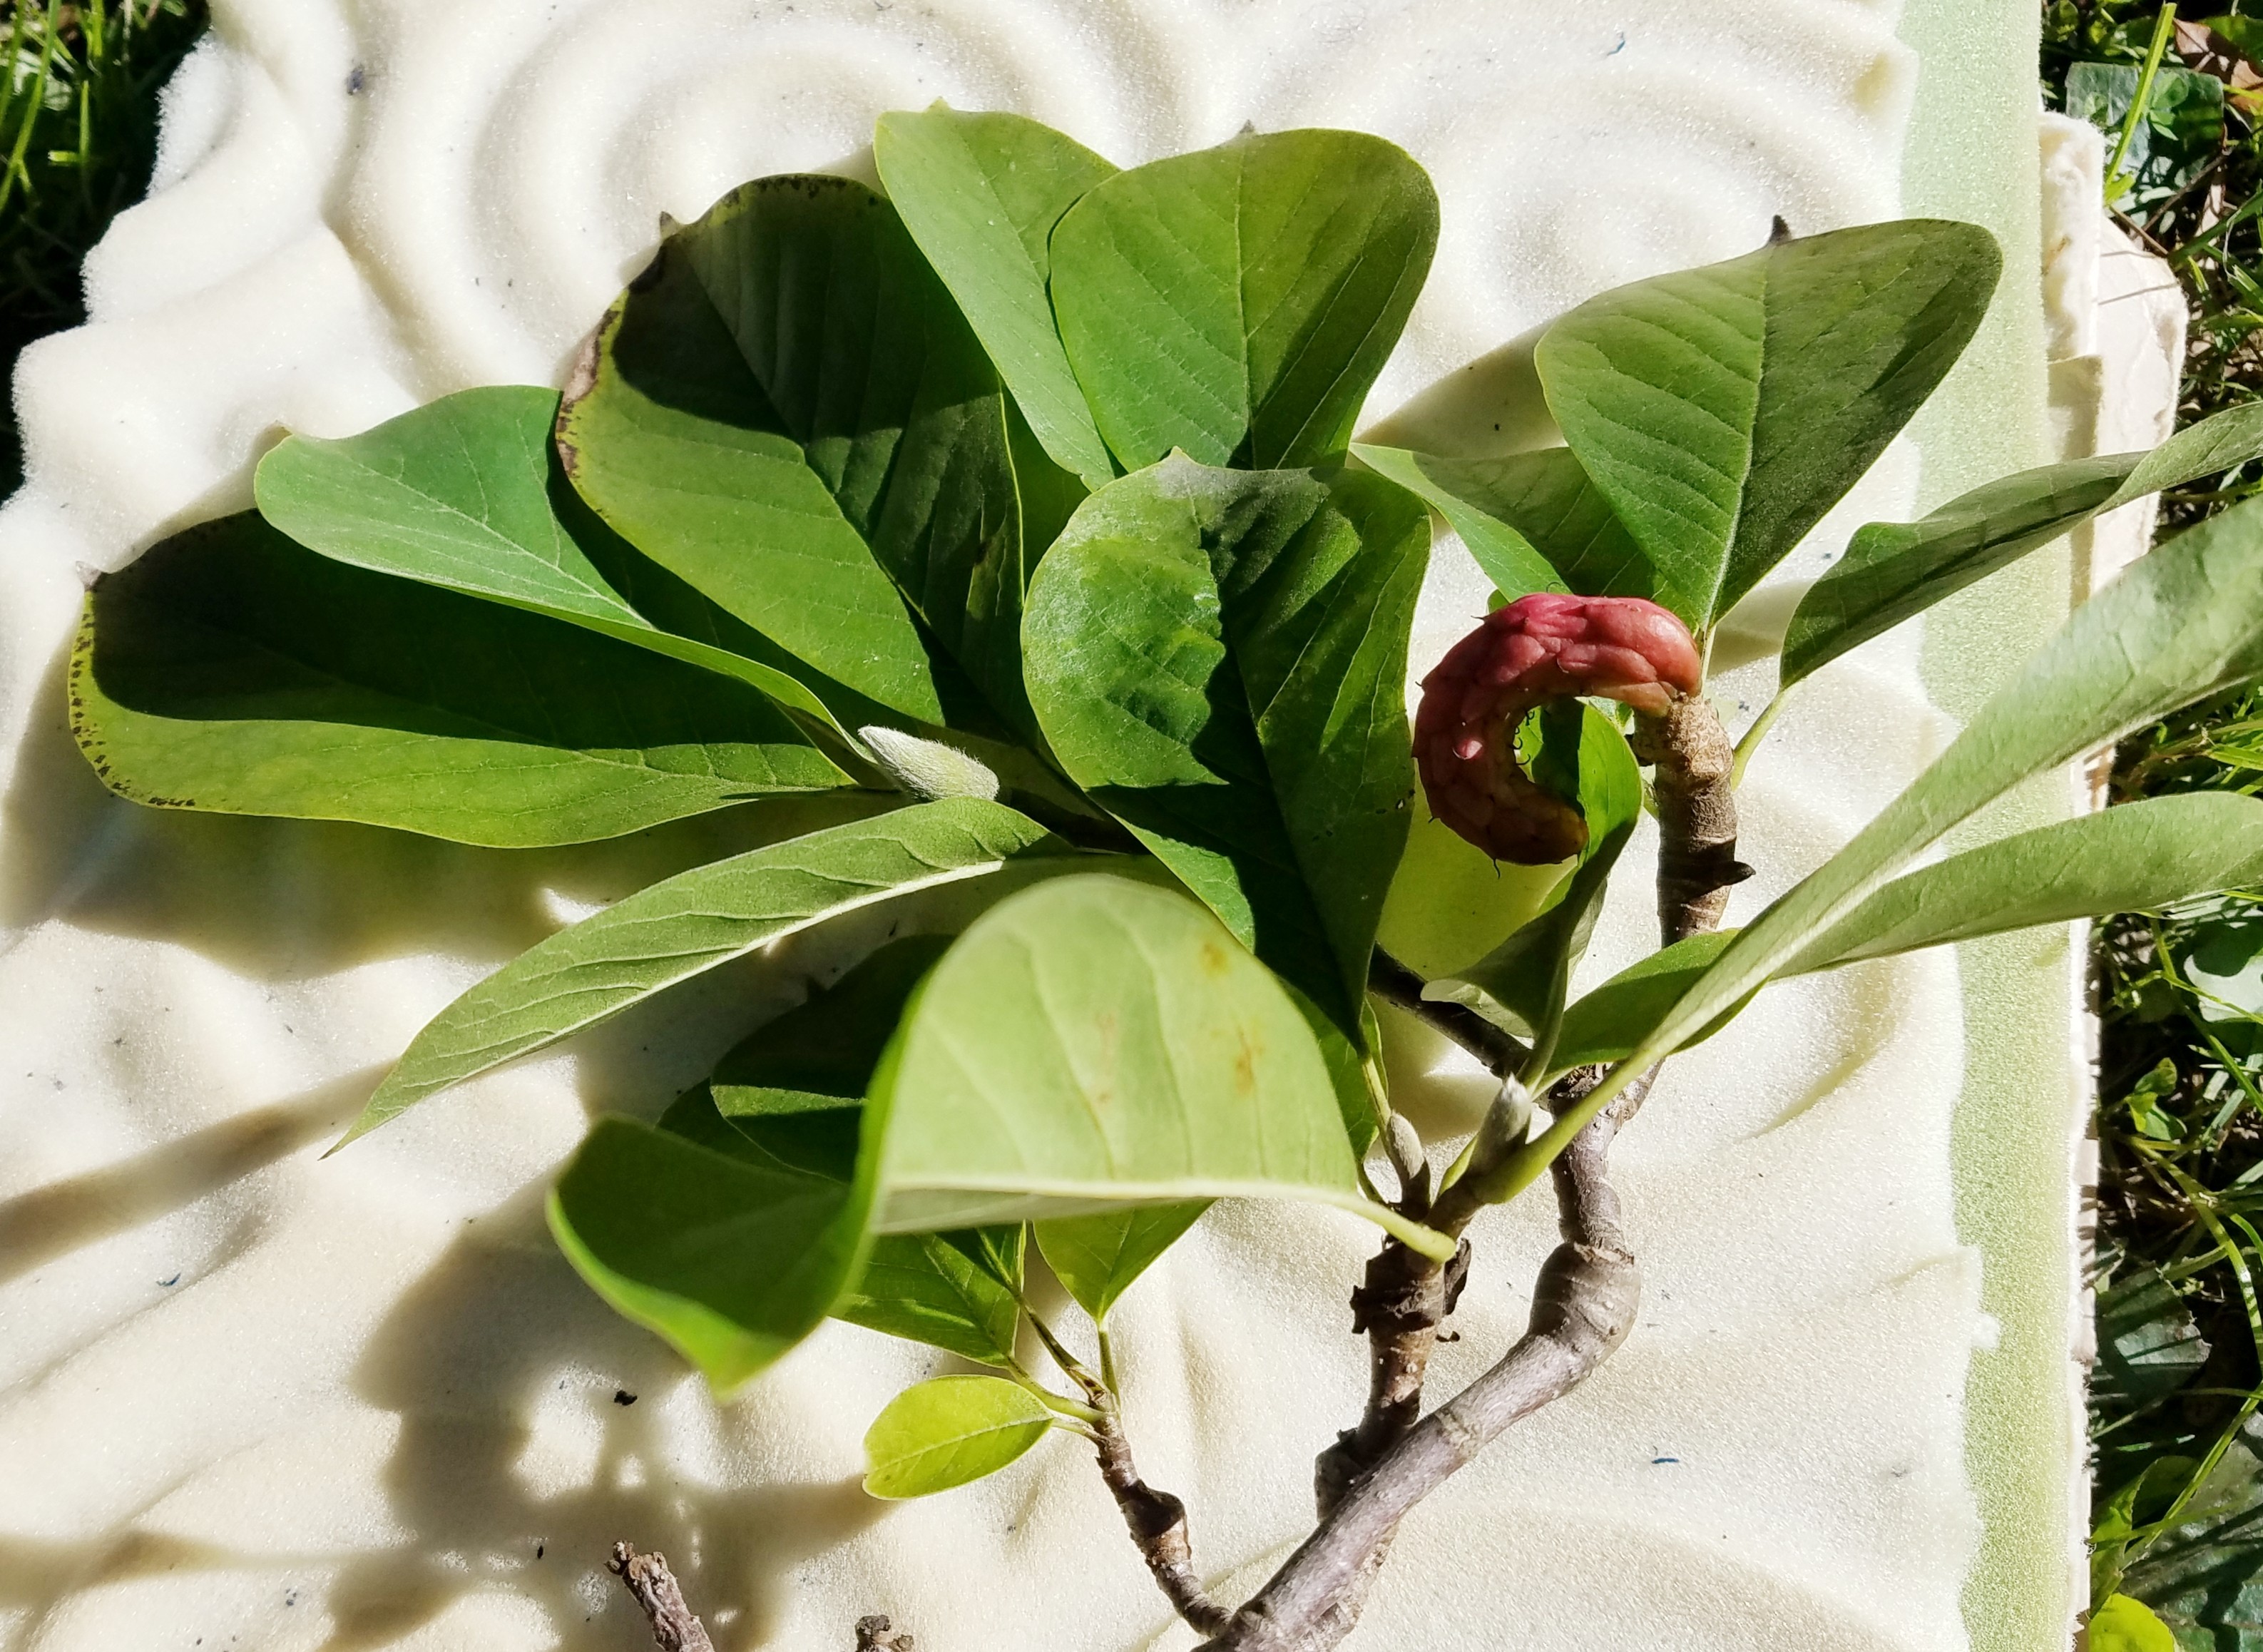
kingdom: Plantae
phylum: Tracheophyta
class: Magnoliopsida
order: Magnoliales
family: Magnoliaceae
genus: Magnolia
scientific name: Magnolia soulangeana
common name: Saucer magnolia
